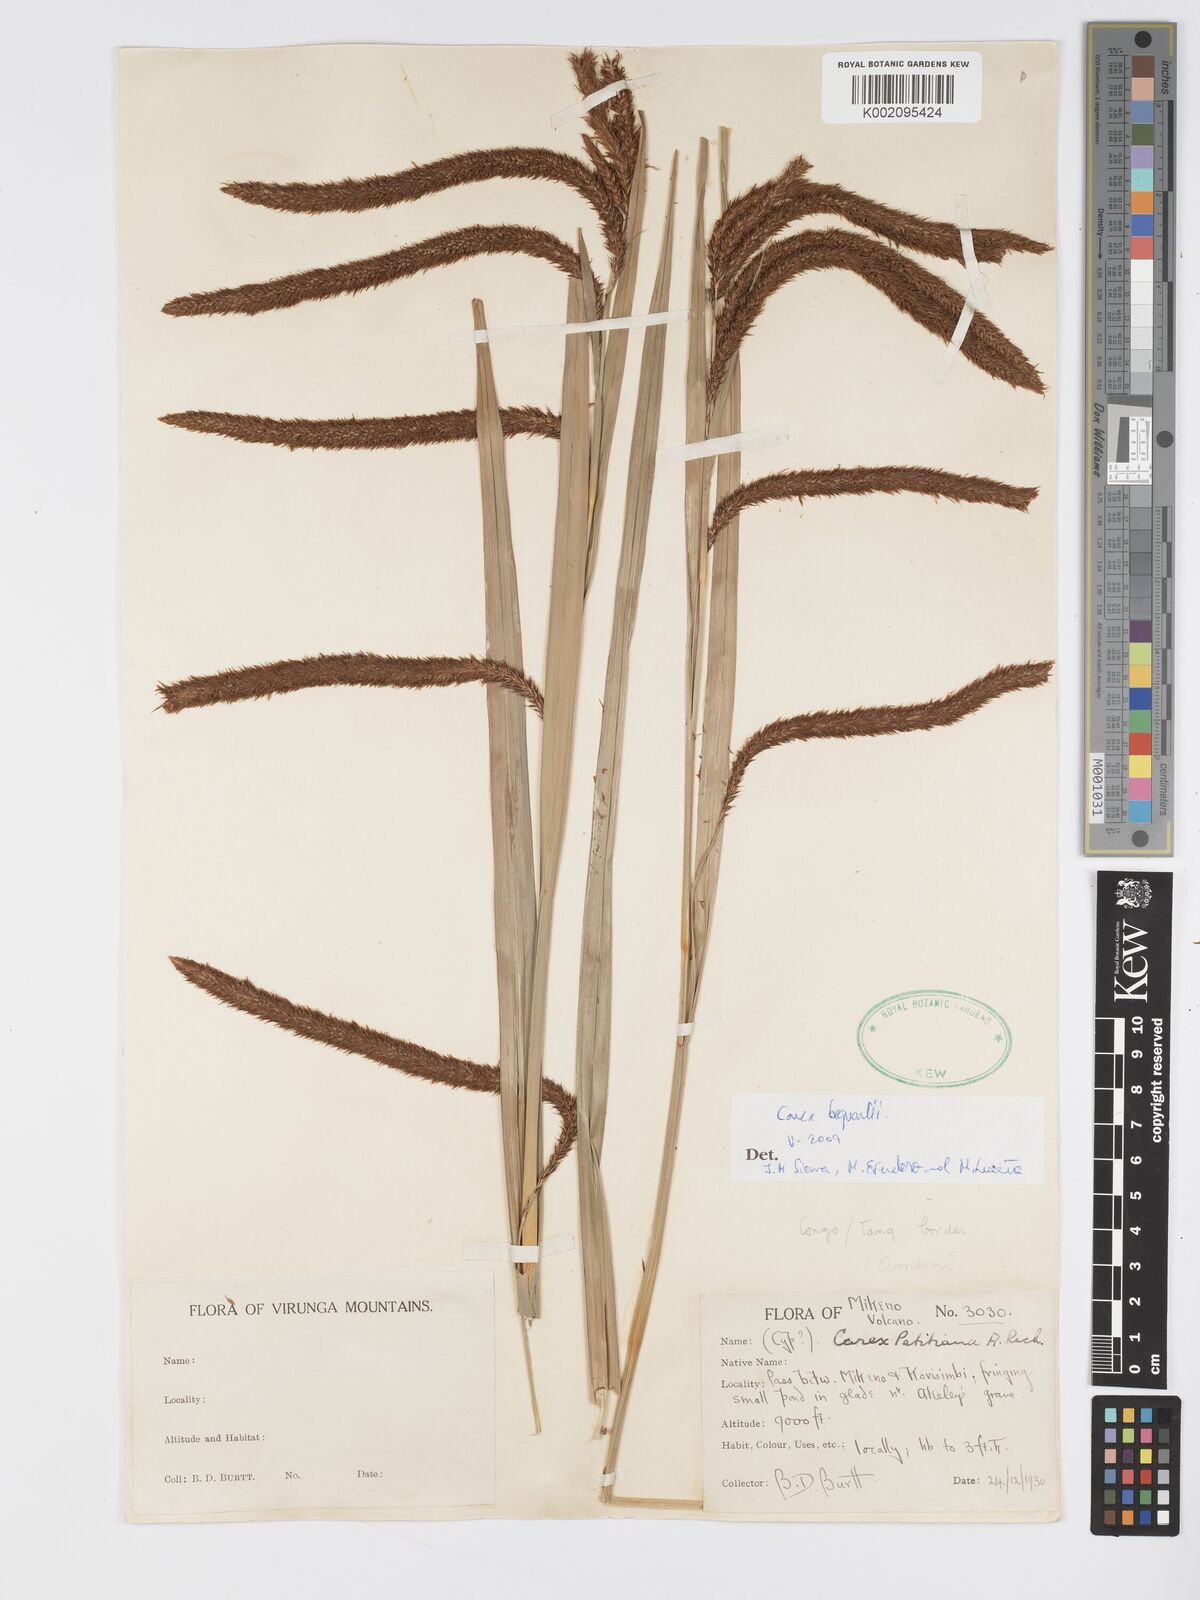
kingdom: Plantae
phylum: Tracheophyta
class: Liliopsida
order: Poales
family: Cyperaceae
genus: Carex
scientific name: Carex bequaertii
